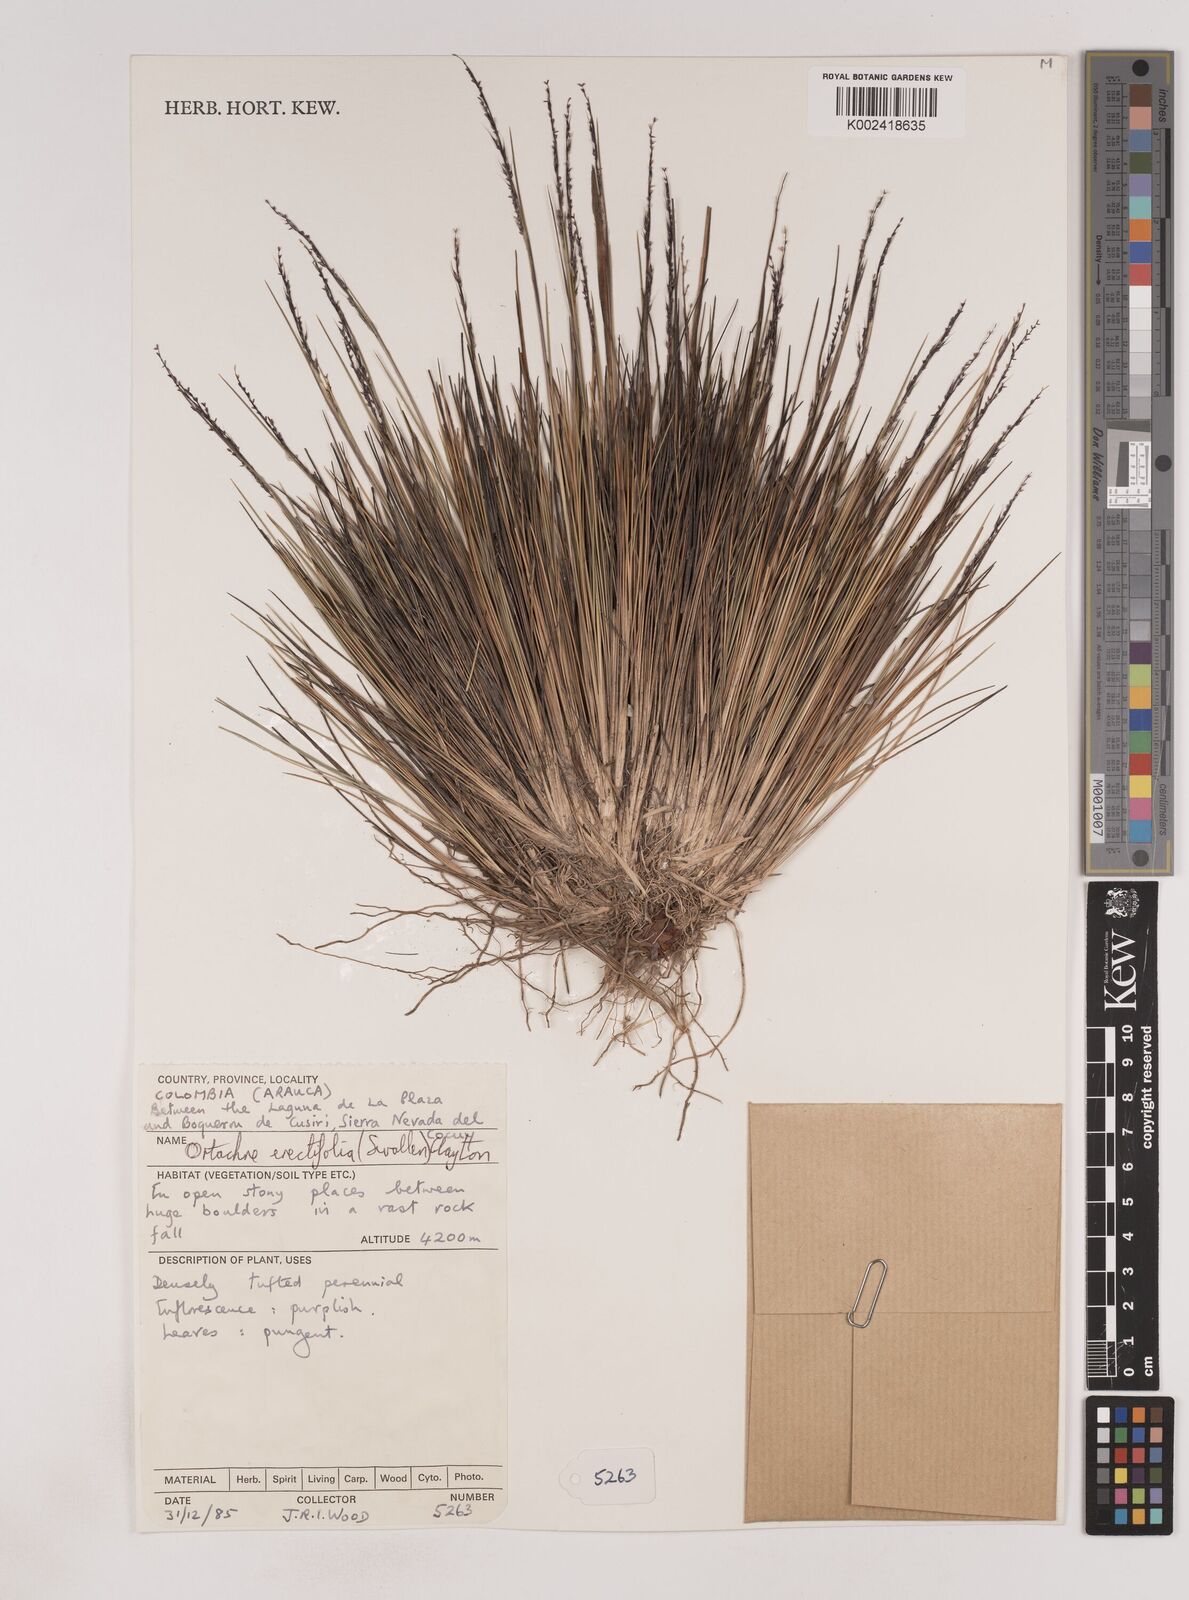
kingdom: Plantae
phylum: Tracheophyta
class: Liliopsida
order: Poales
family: Poaceae
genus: Lorenzochloa
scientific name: Lorenzochloa erectifolia
